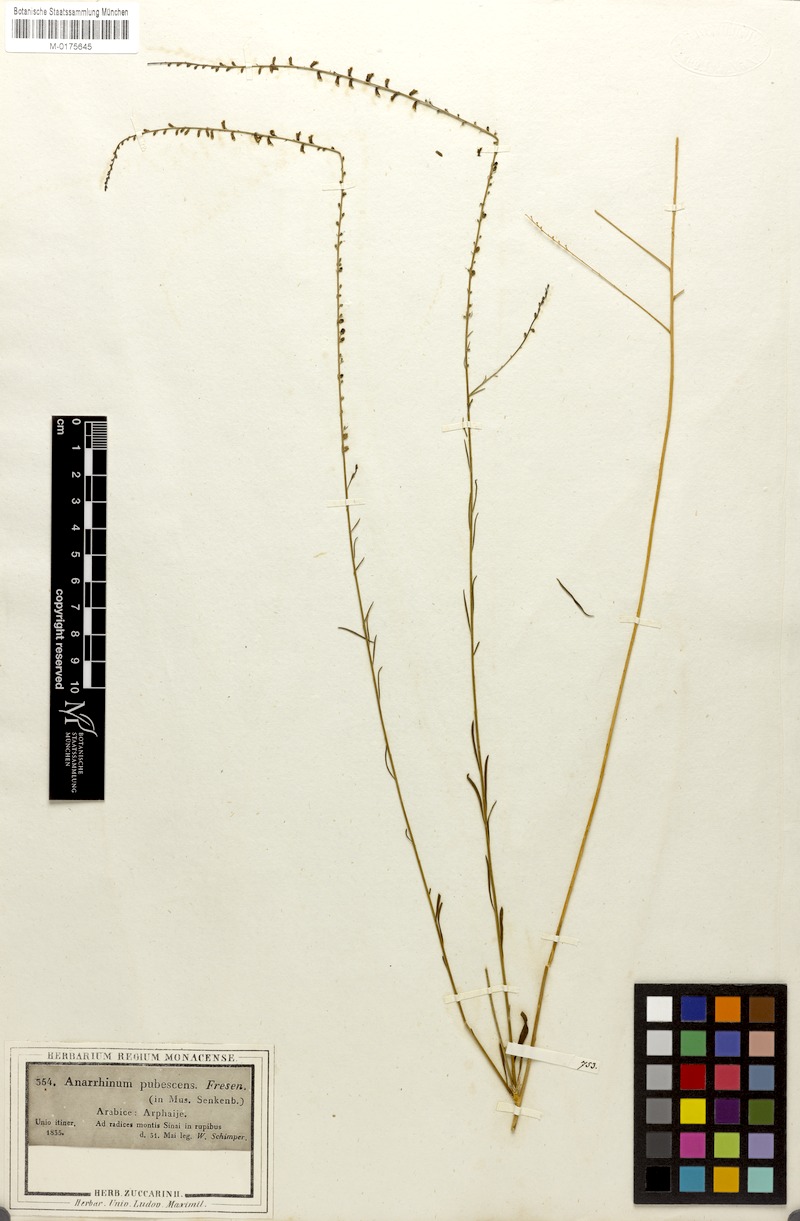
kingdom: Plantae
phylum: Tracheophyta
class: Magnoliopsida
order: Lamiales
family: Plantaginaceae
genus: Anarrhinum
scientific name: Anarrhinum forskaohlii
